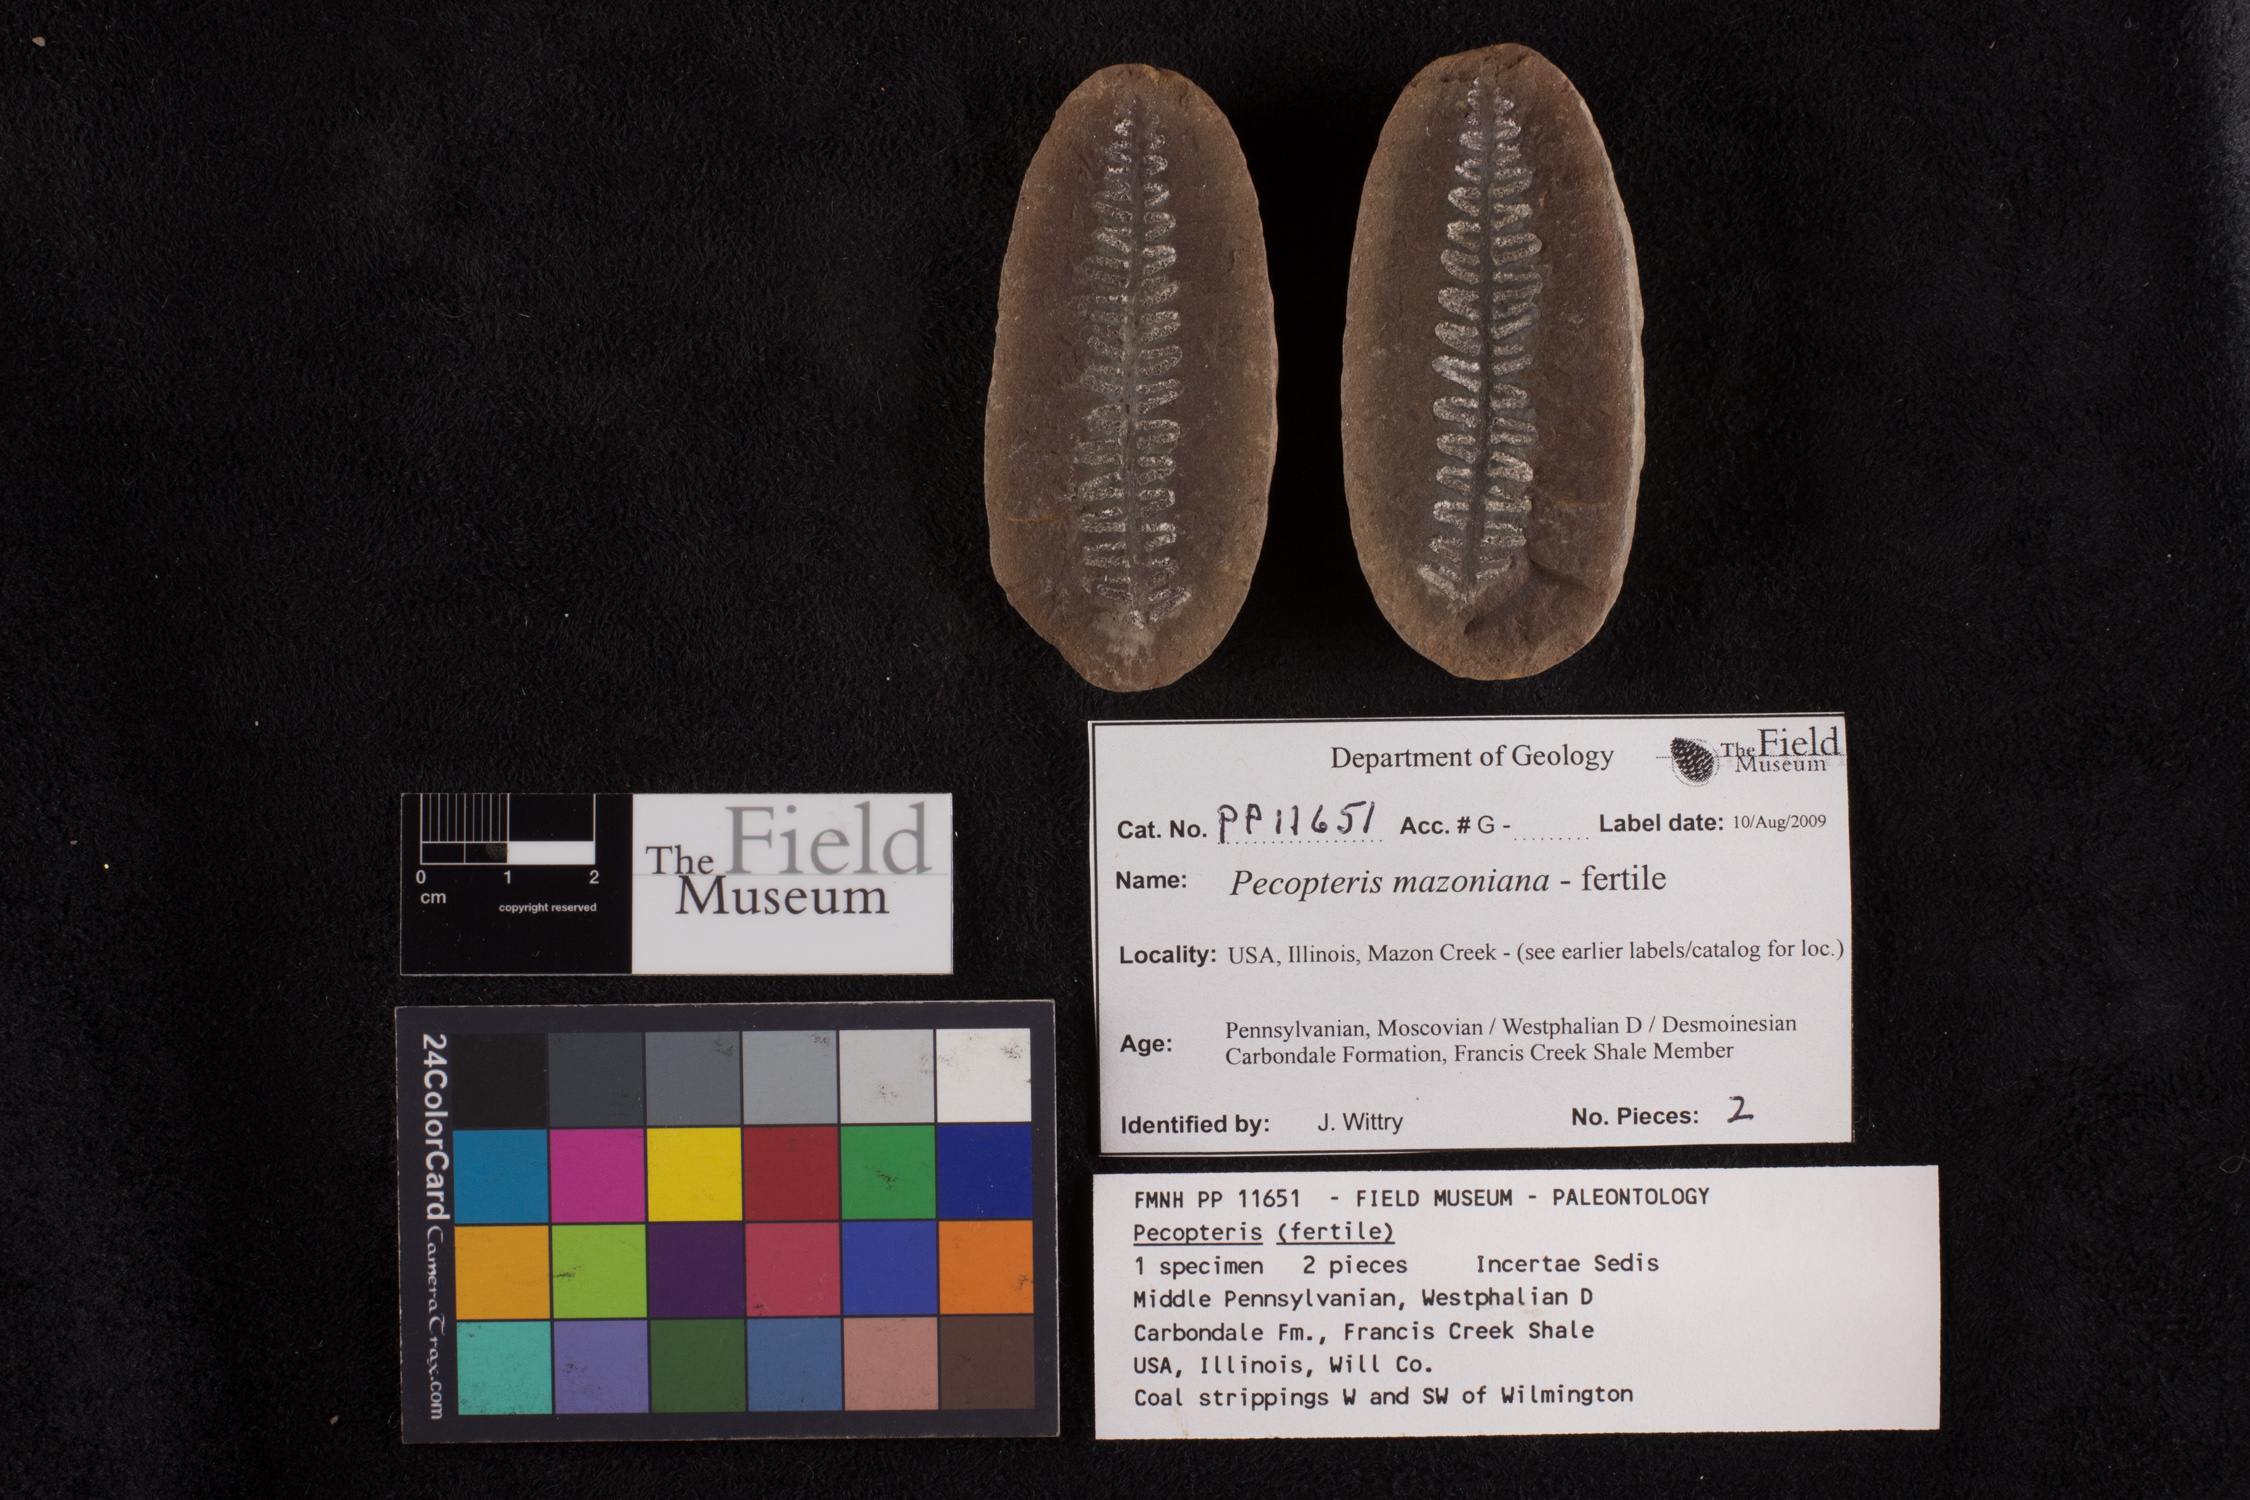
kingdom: Plantae
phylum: Tracheophyta
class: Polypodiopsida
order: Marattiales
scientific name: Marattiales
